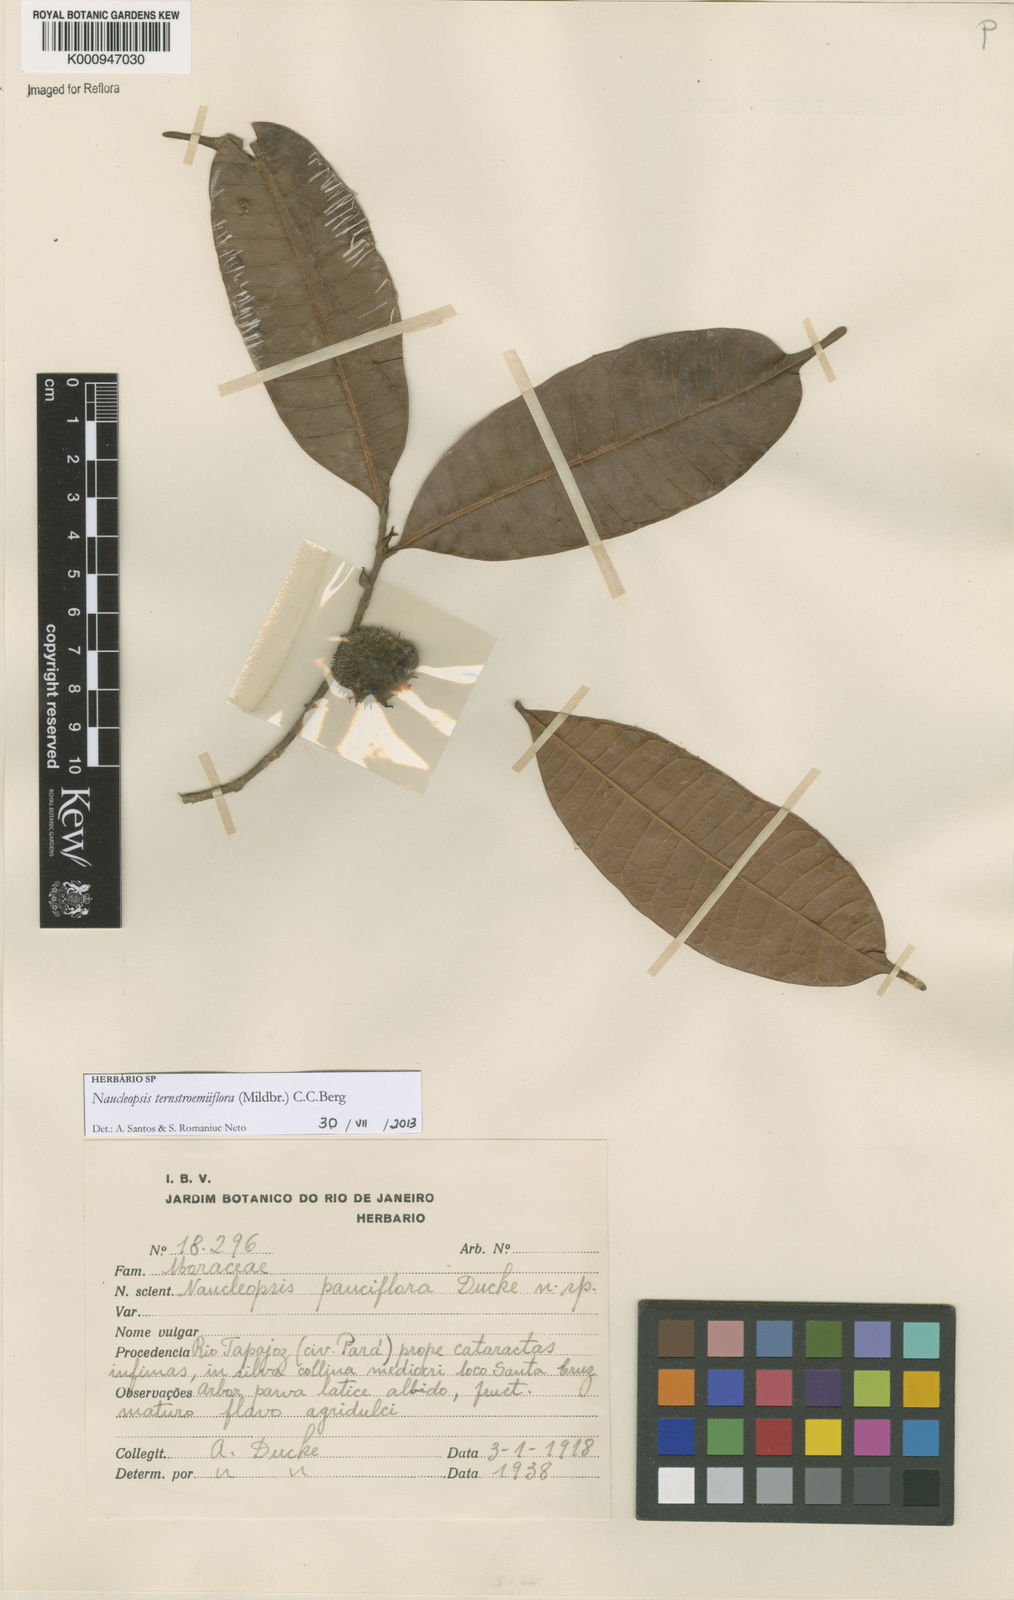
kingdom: Plantae
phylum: Tracheophyta
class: Magnoliopsida
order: Rosales
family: Moraceae
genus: Naucleopsis
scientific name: Naucleopsis ternstroemiiflora
